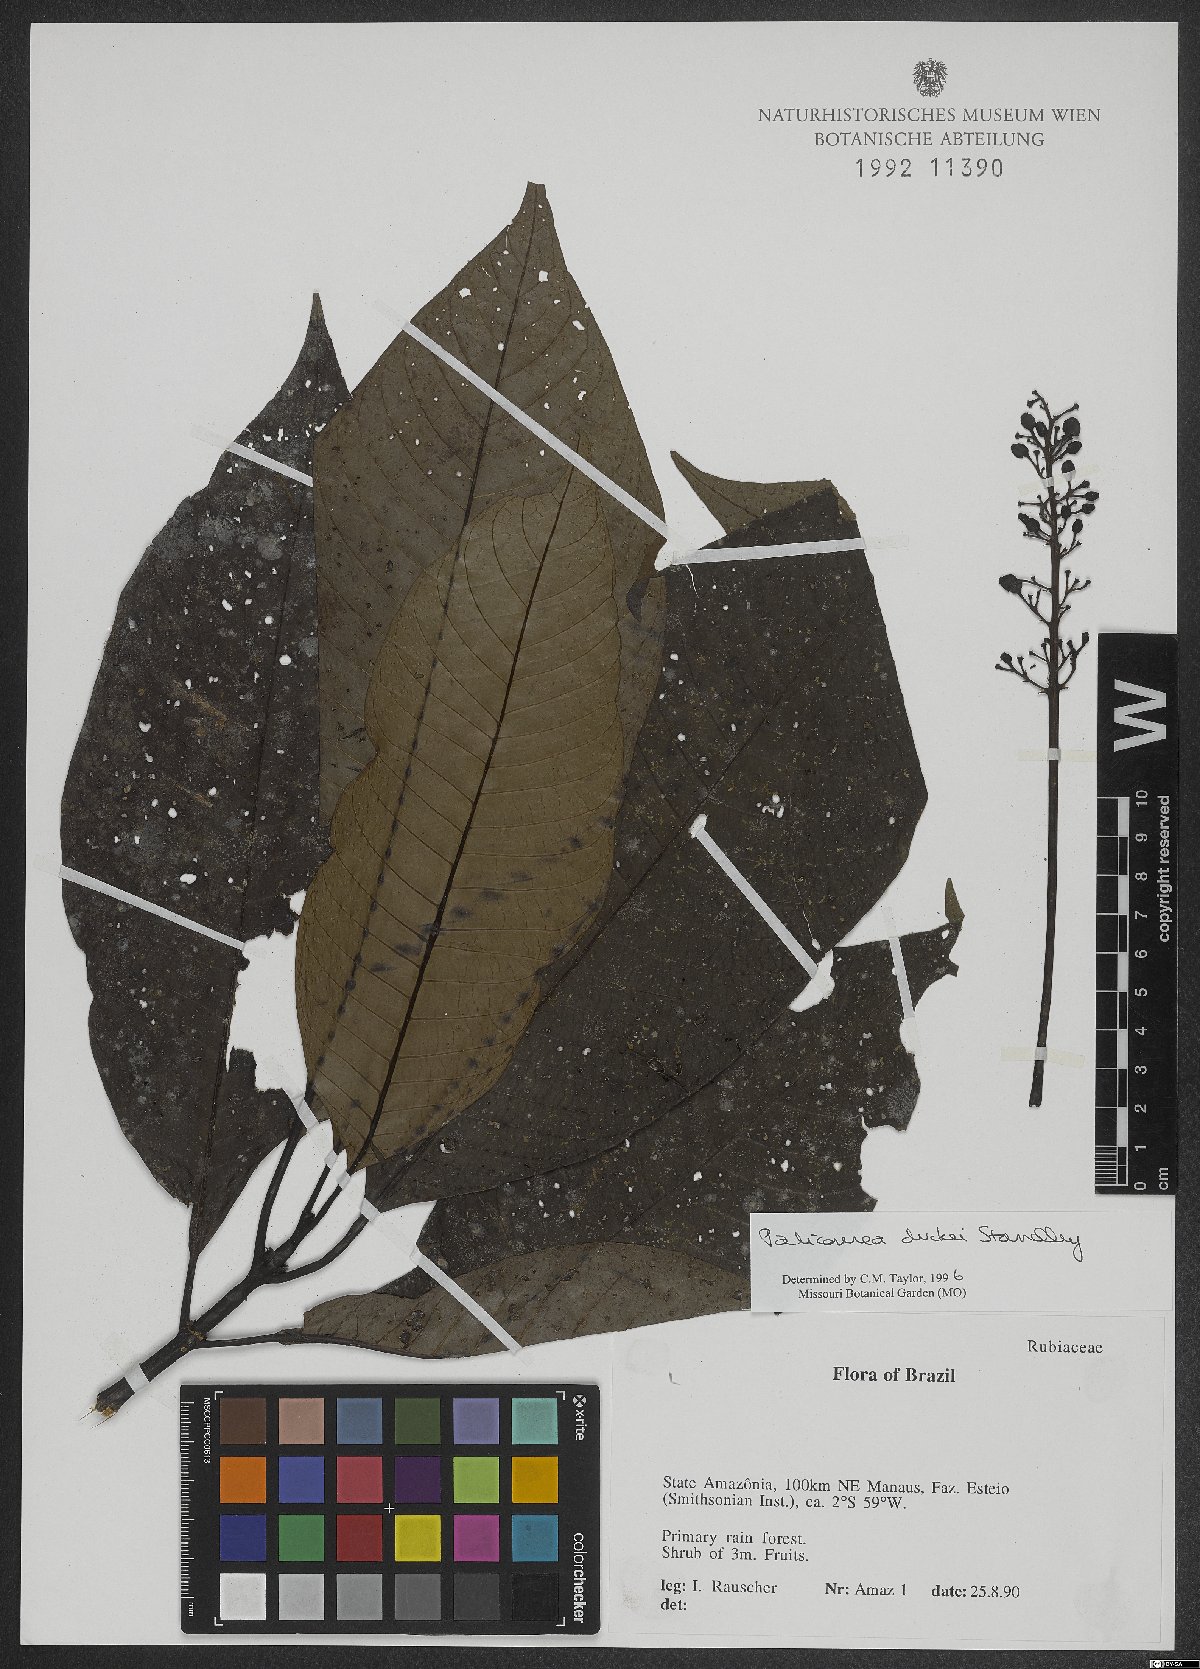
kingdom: Plantae
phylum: Tracheophyta
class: Magnoliopsida
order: Gentianales
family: Rubiaceae
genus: Palicourea
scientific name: Palicourea duckei
